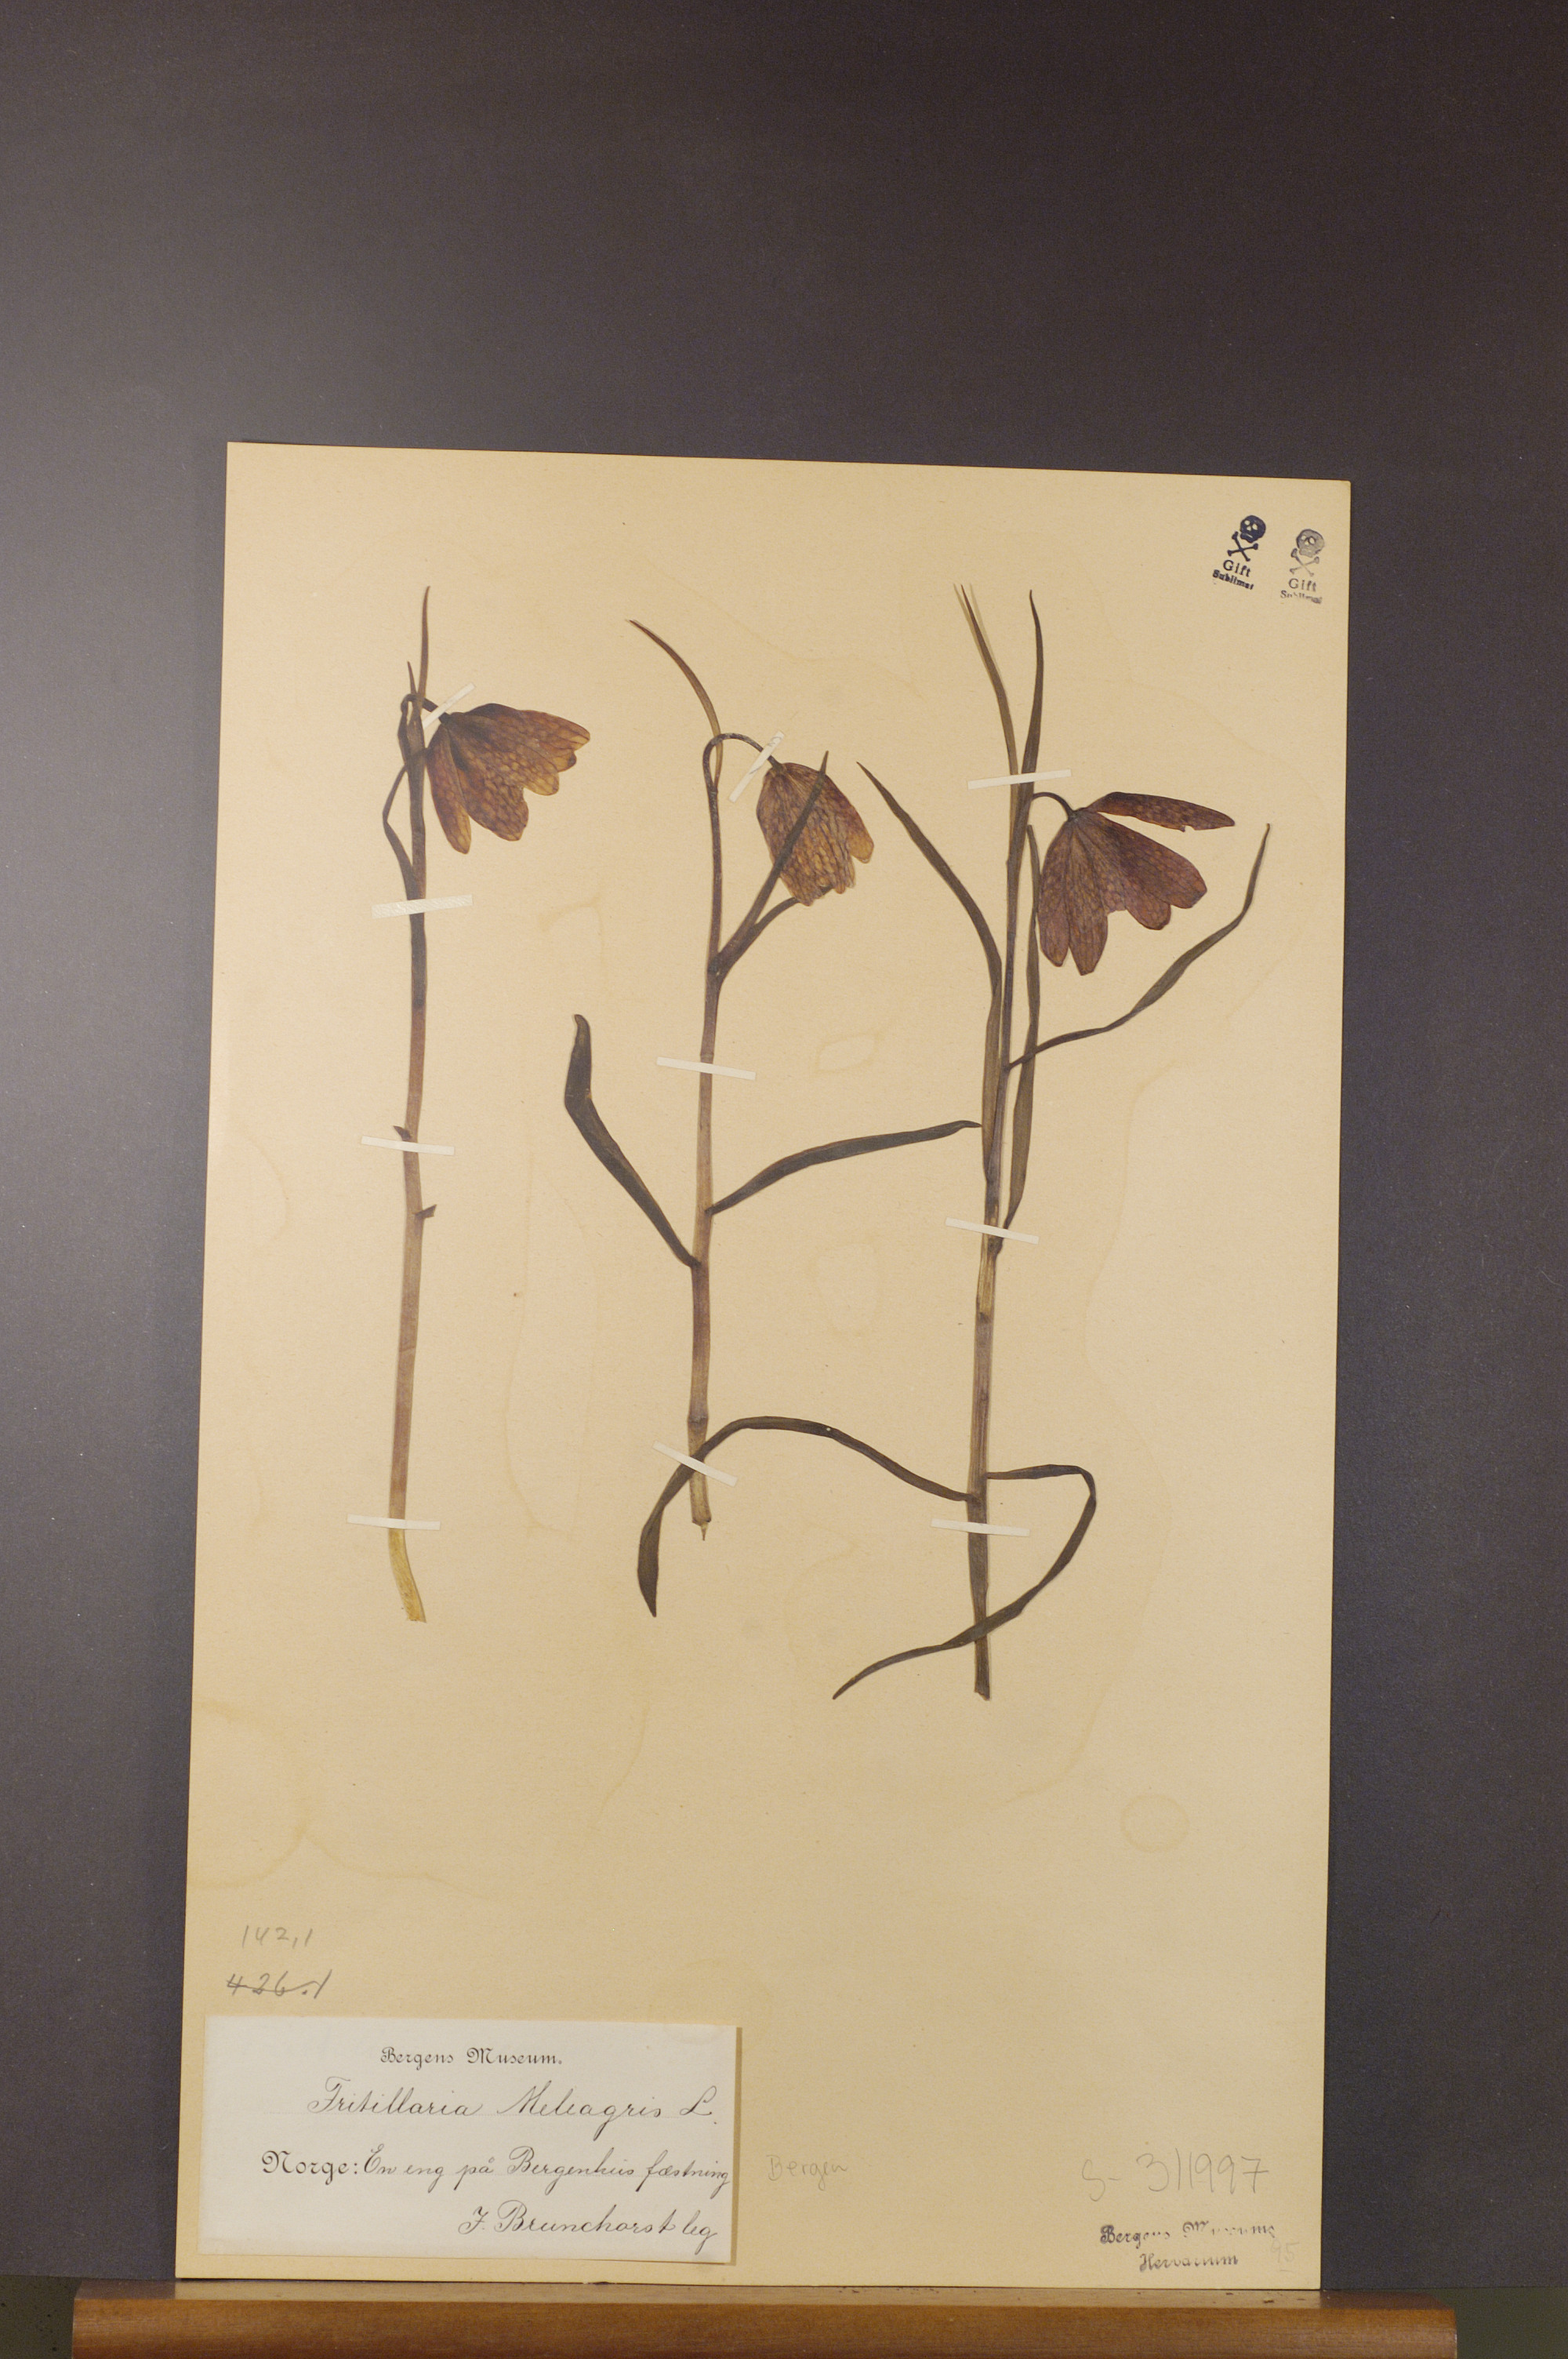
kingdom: Plantae
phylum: Tracheophyta
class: Liliopsida
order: Liliales
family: Liliaceae
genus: Fritillaria
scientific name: Fritillaria meleagris
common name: Fritillary
